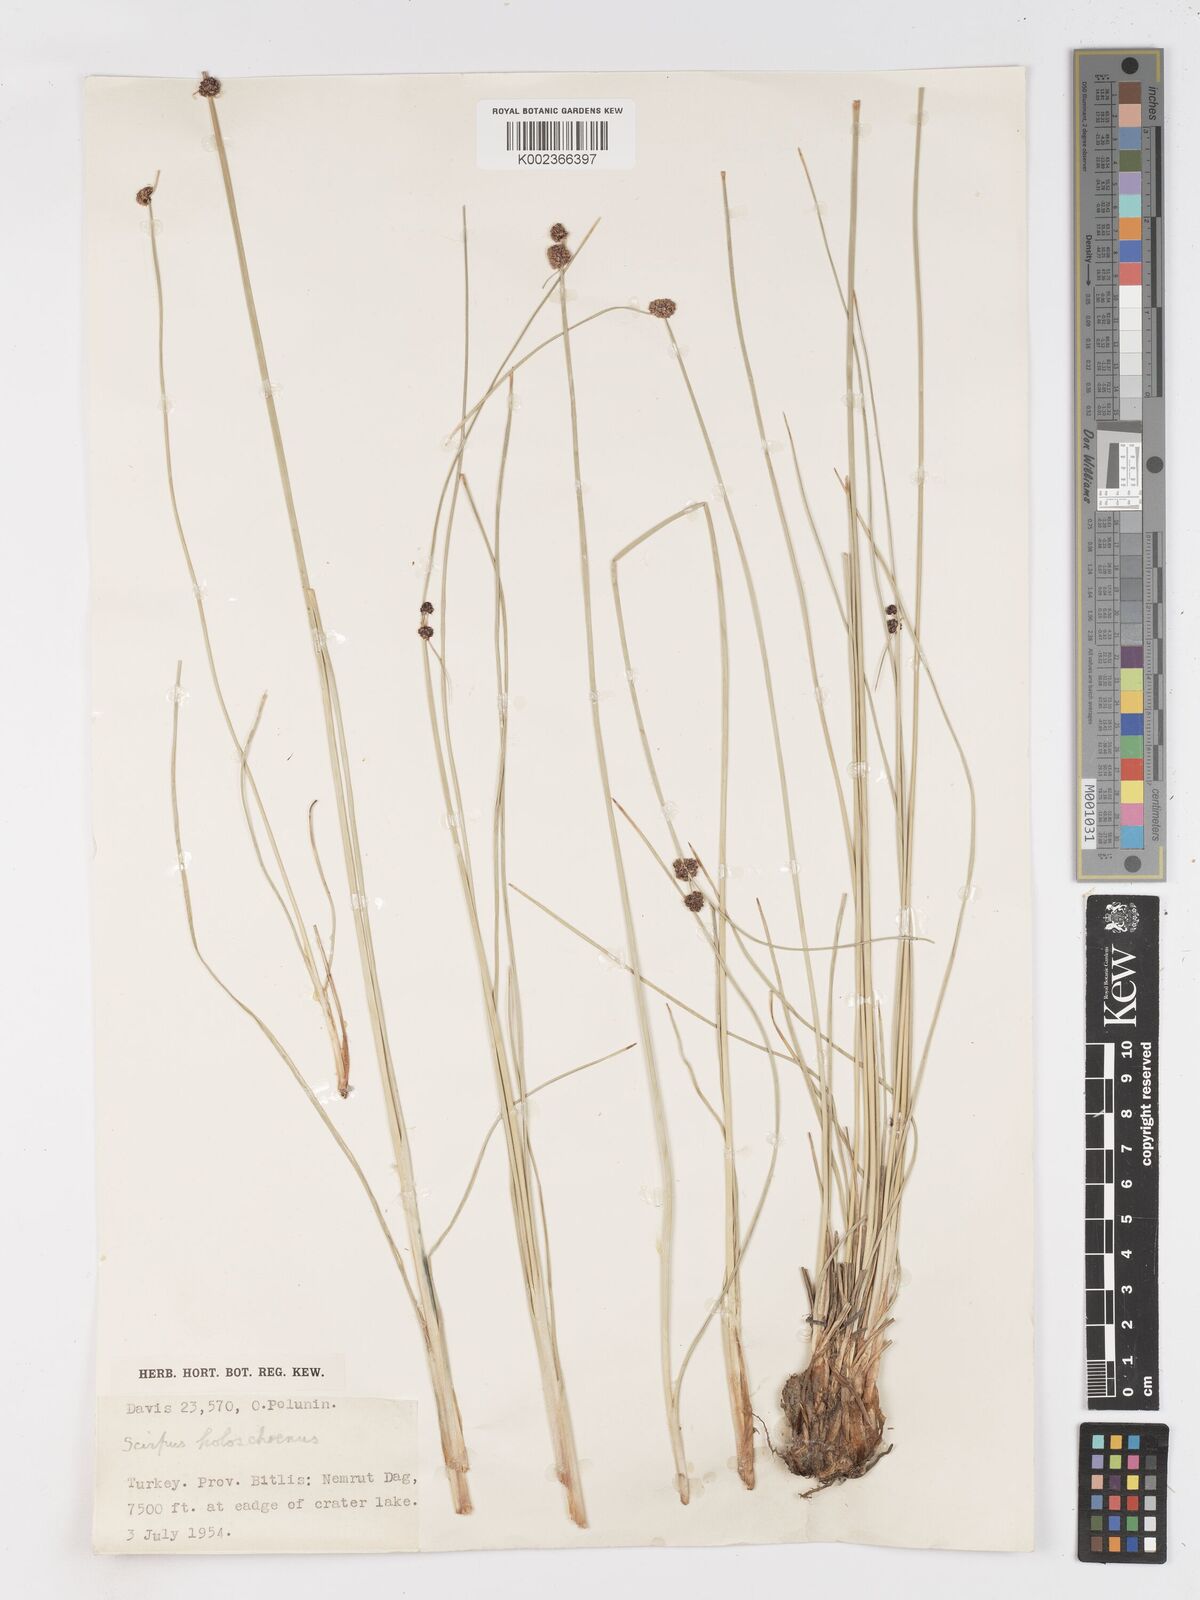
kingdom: Plantae
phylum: Tracheophyta
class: Liliopsida
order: Poales
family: Cyperaceae
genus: Scirpoides
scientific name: Scirpoides holoschoenus
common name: Round-headed club-rush
